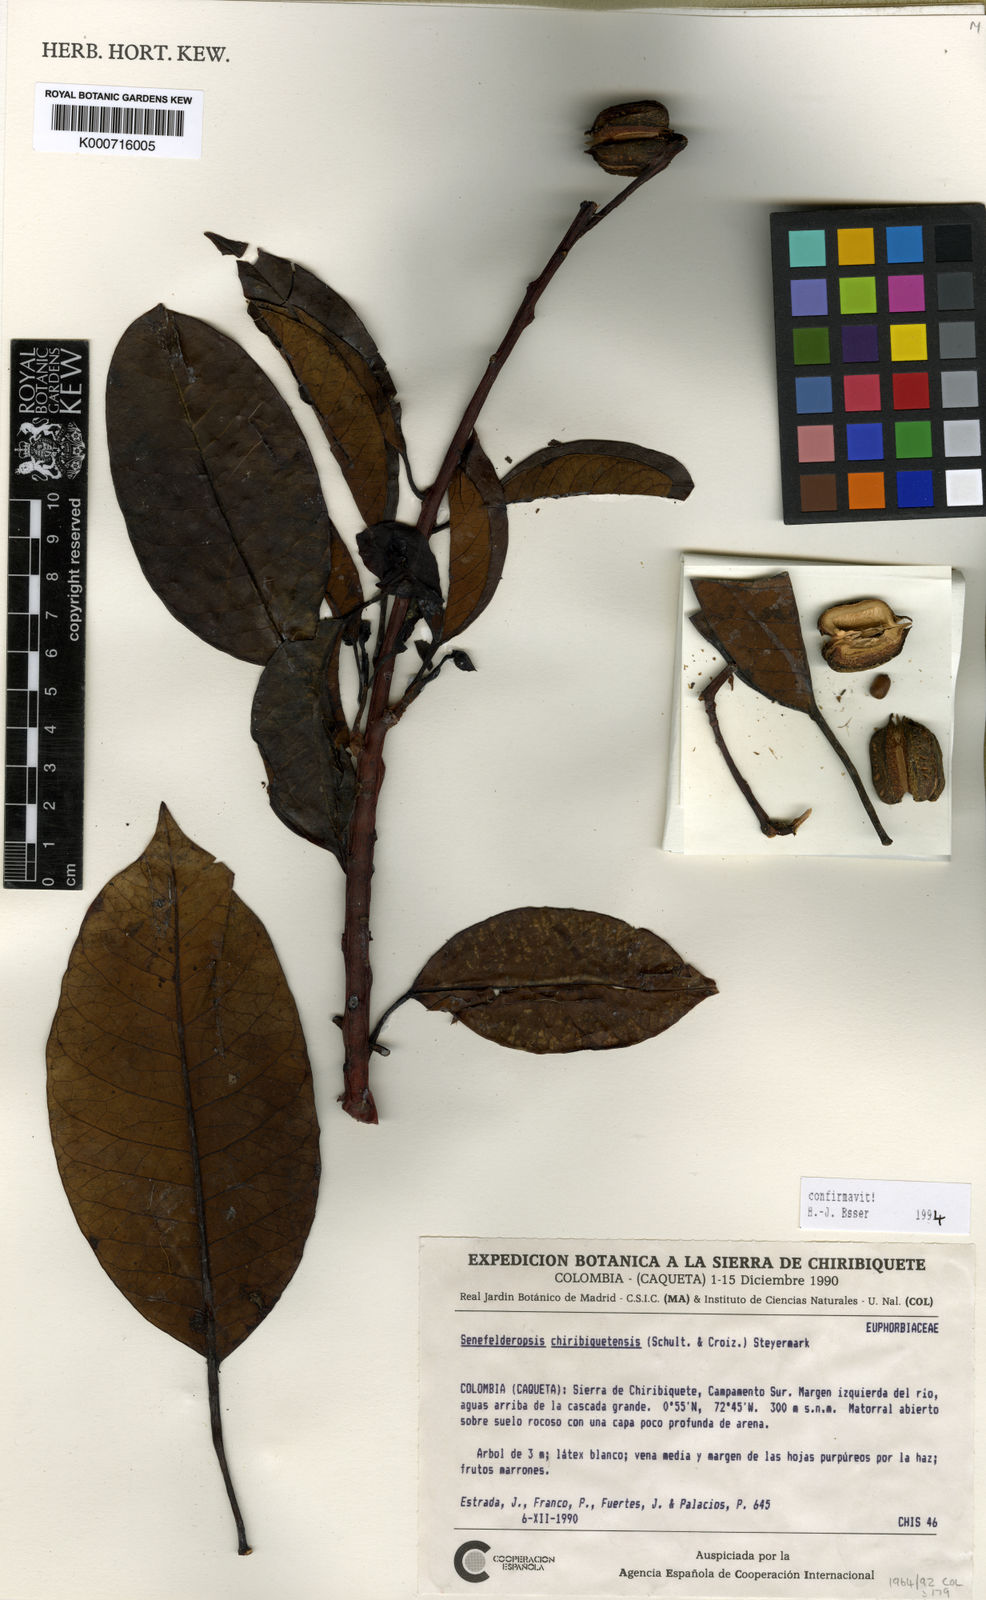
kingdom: Plantae
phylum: Tracheophyta
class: Magnoliopsida
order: Malpighiales
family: Euphorbiaceae
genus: Senefelderopsis
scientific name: Senefelderopsis chiribiquetensis
